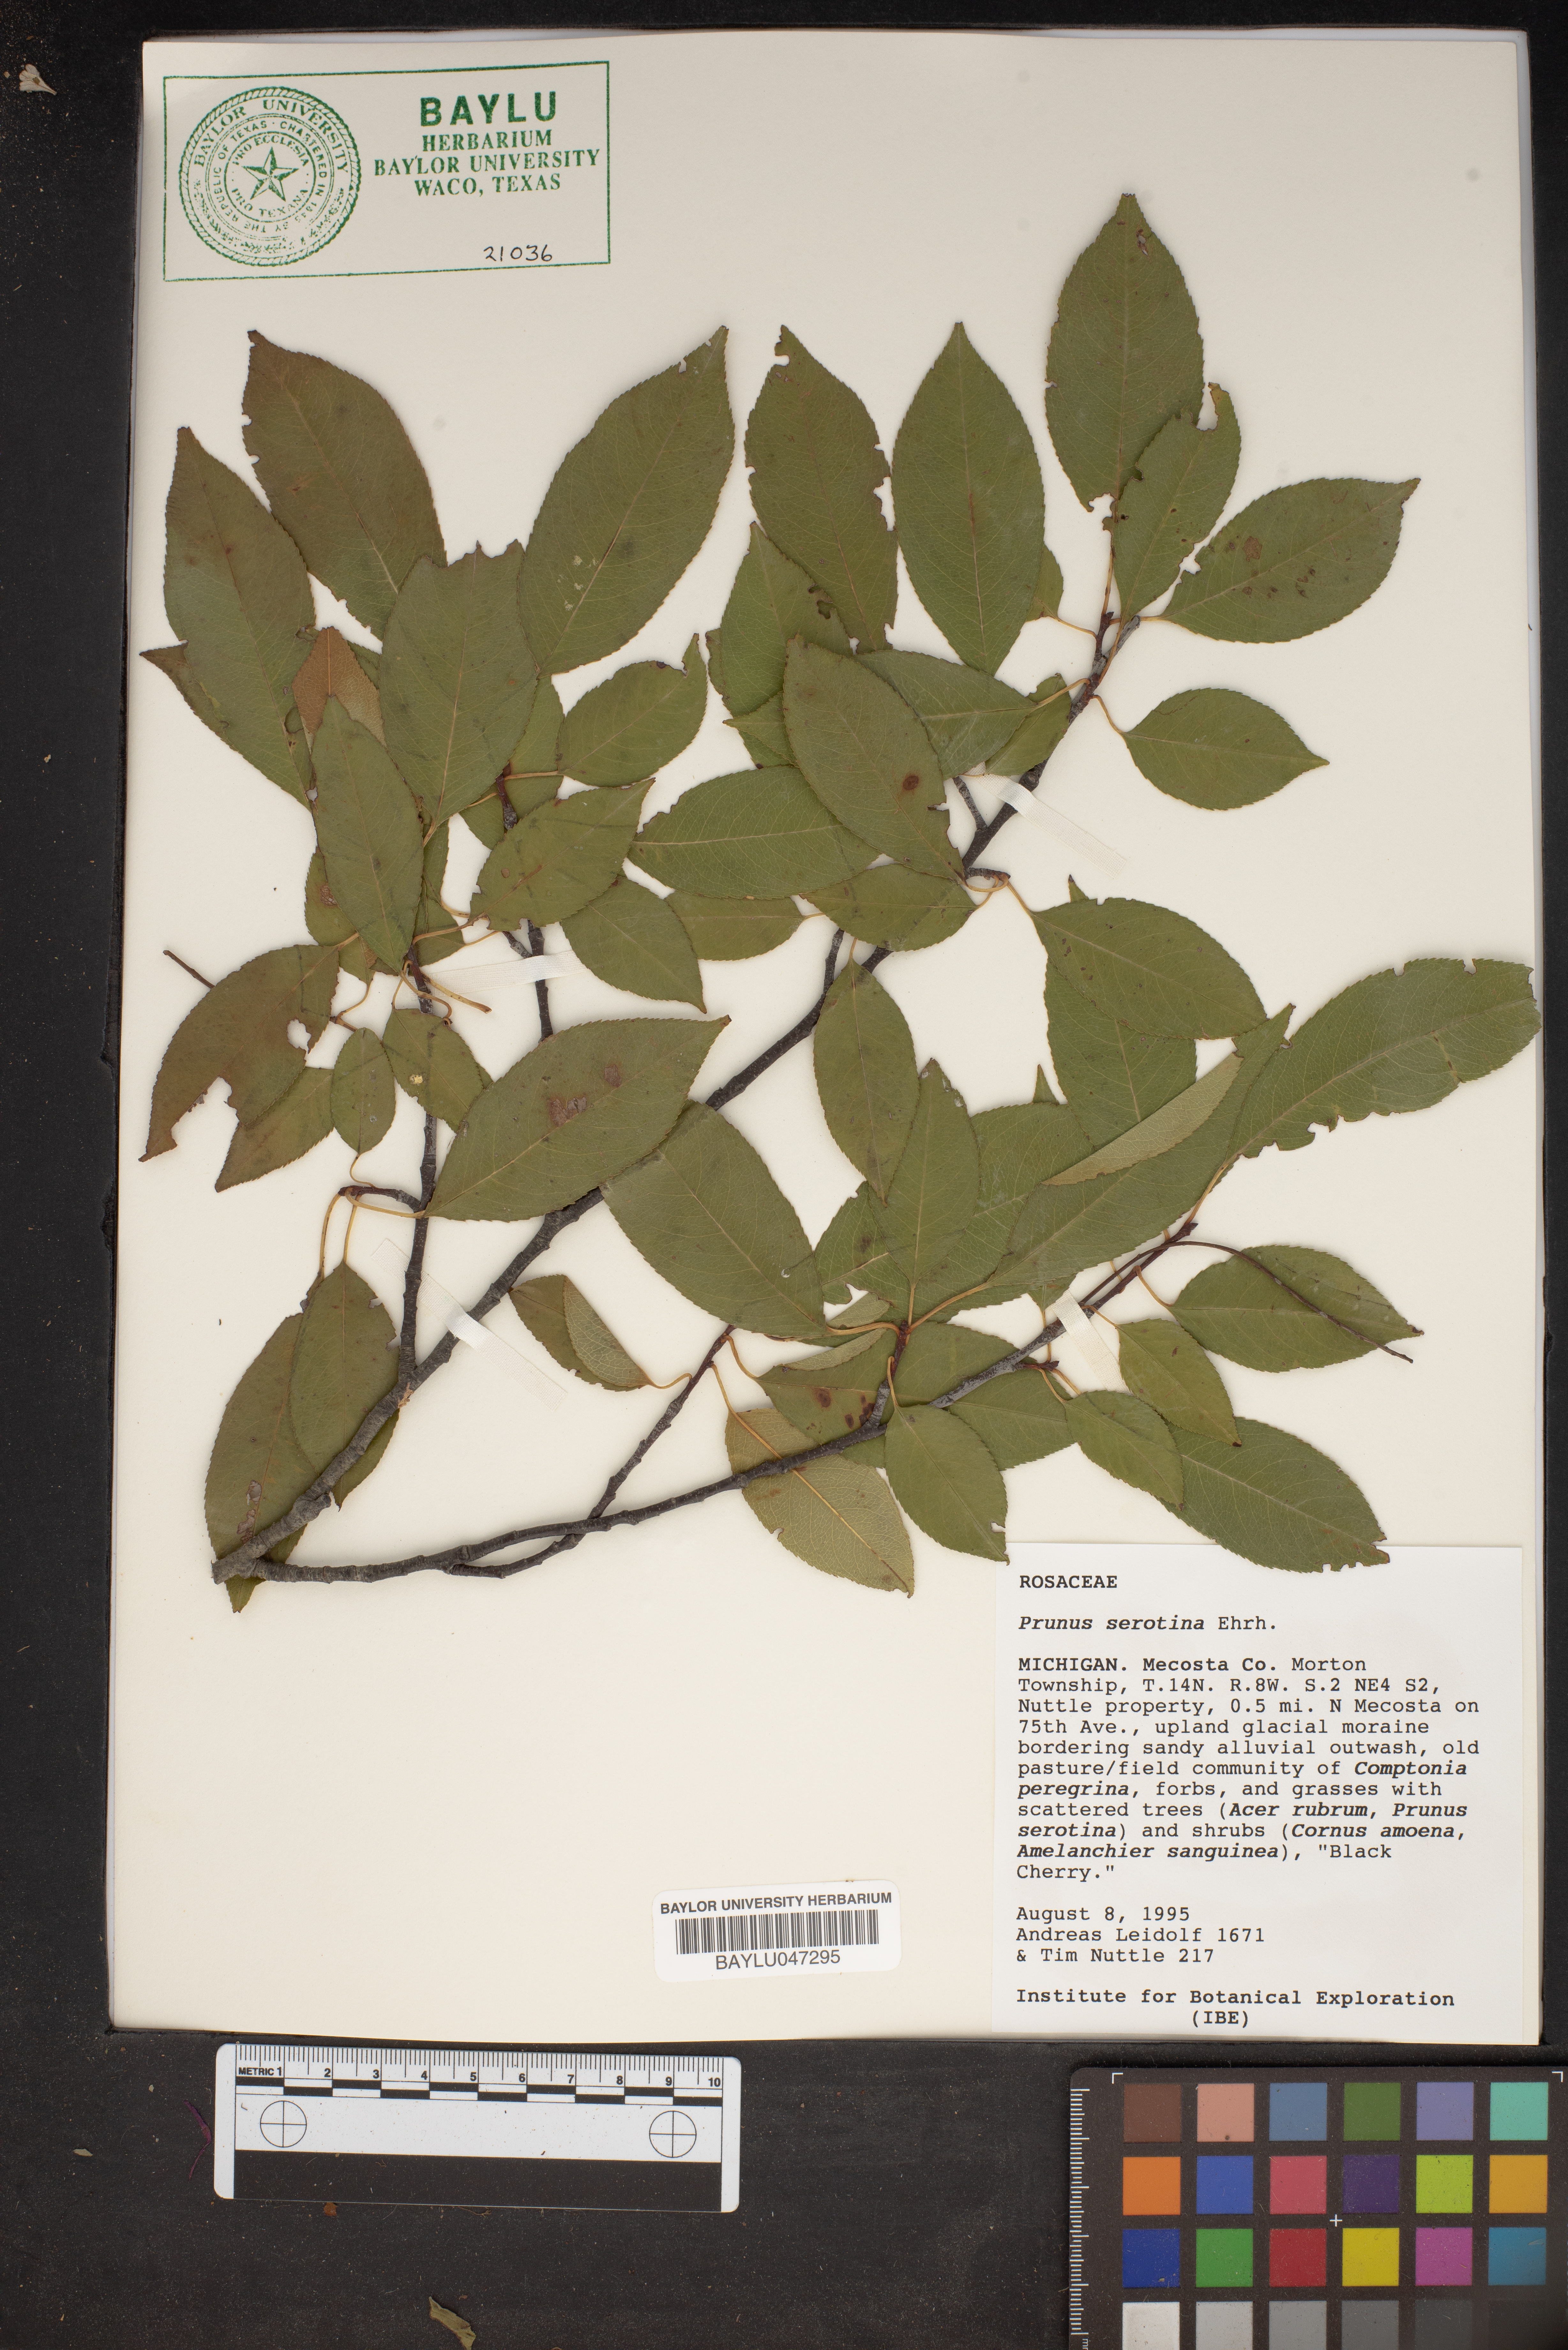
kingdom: Plantae
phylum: Tracheophyta
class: Magnoliopsida
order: Rosales
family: Rosaceae
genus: Prunus
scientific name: Prunus serotina
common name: Black cherry
